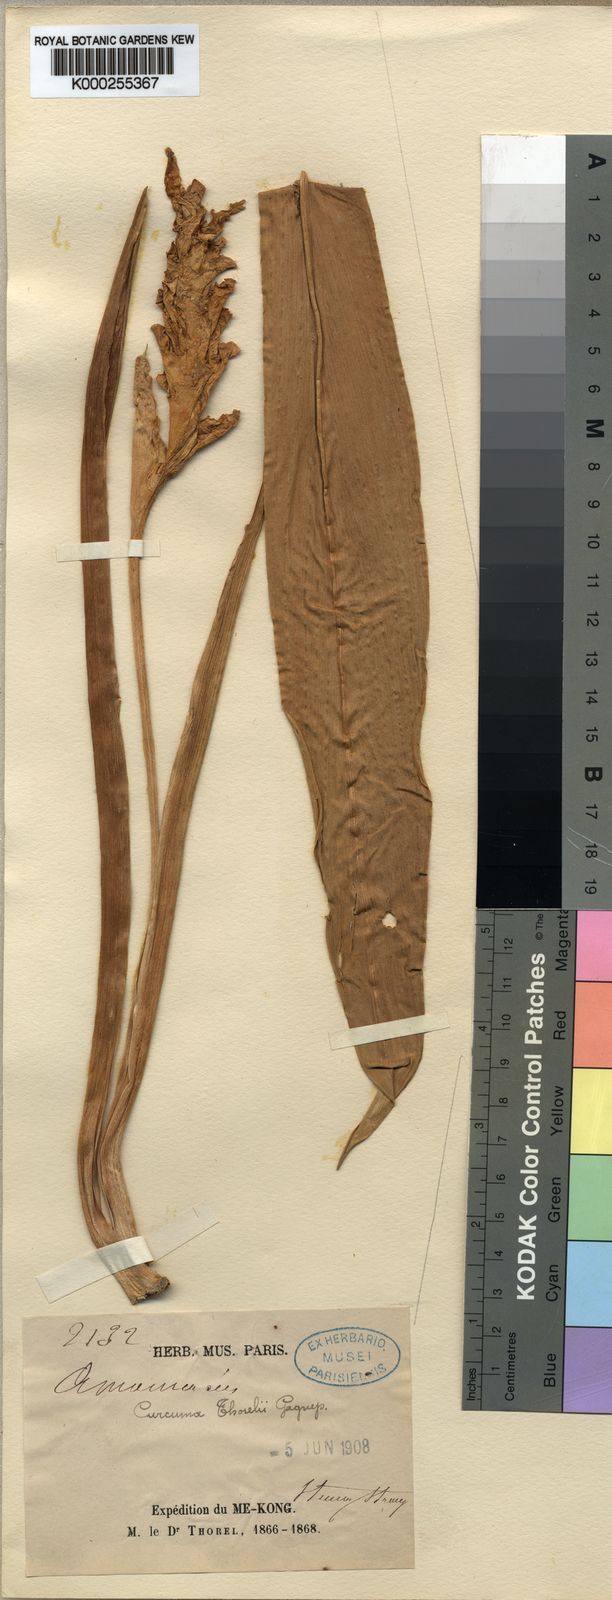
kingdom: Plantae
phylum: Tracheophyta
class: Liliopsida
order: Zingiberales
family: Zingiberaceae
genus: Curcuma
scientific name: Curcuma thorelii
